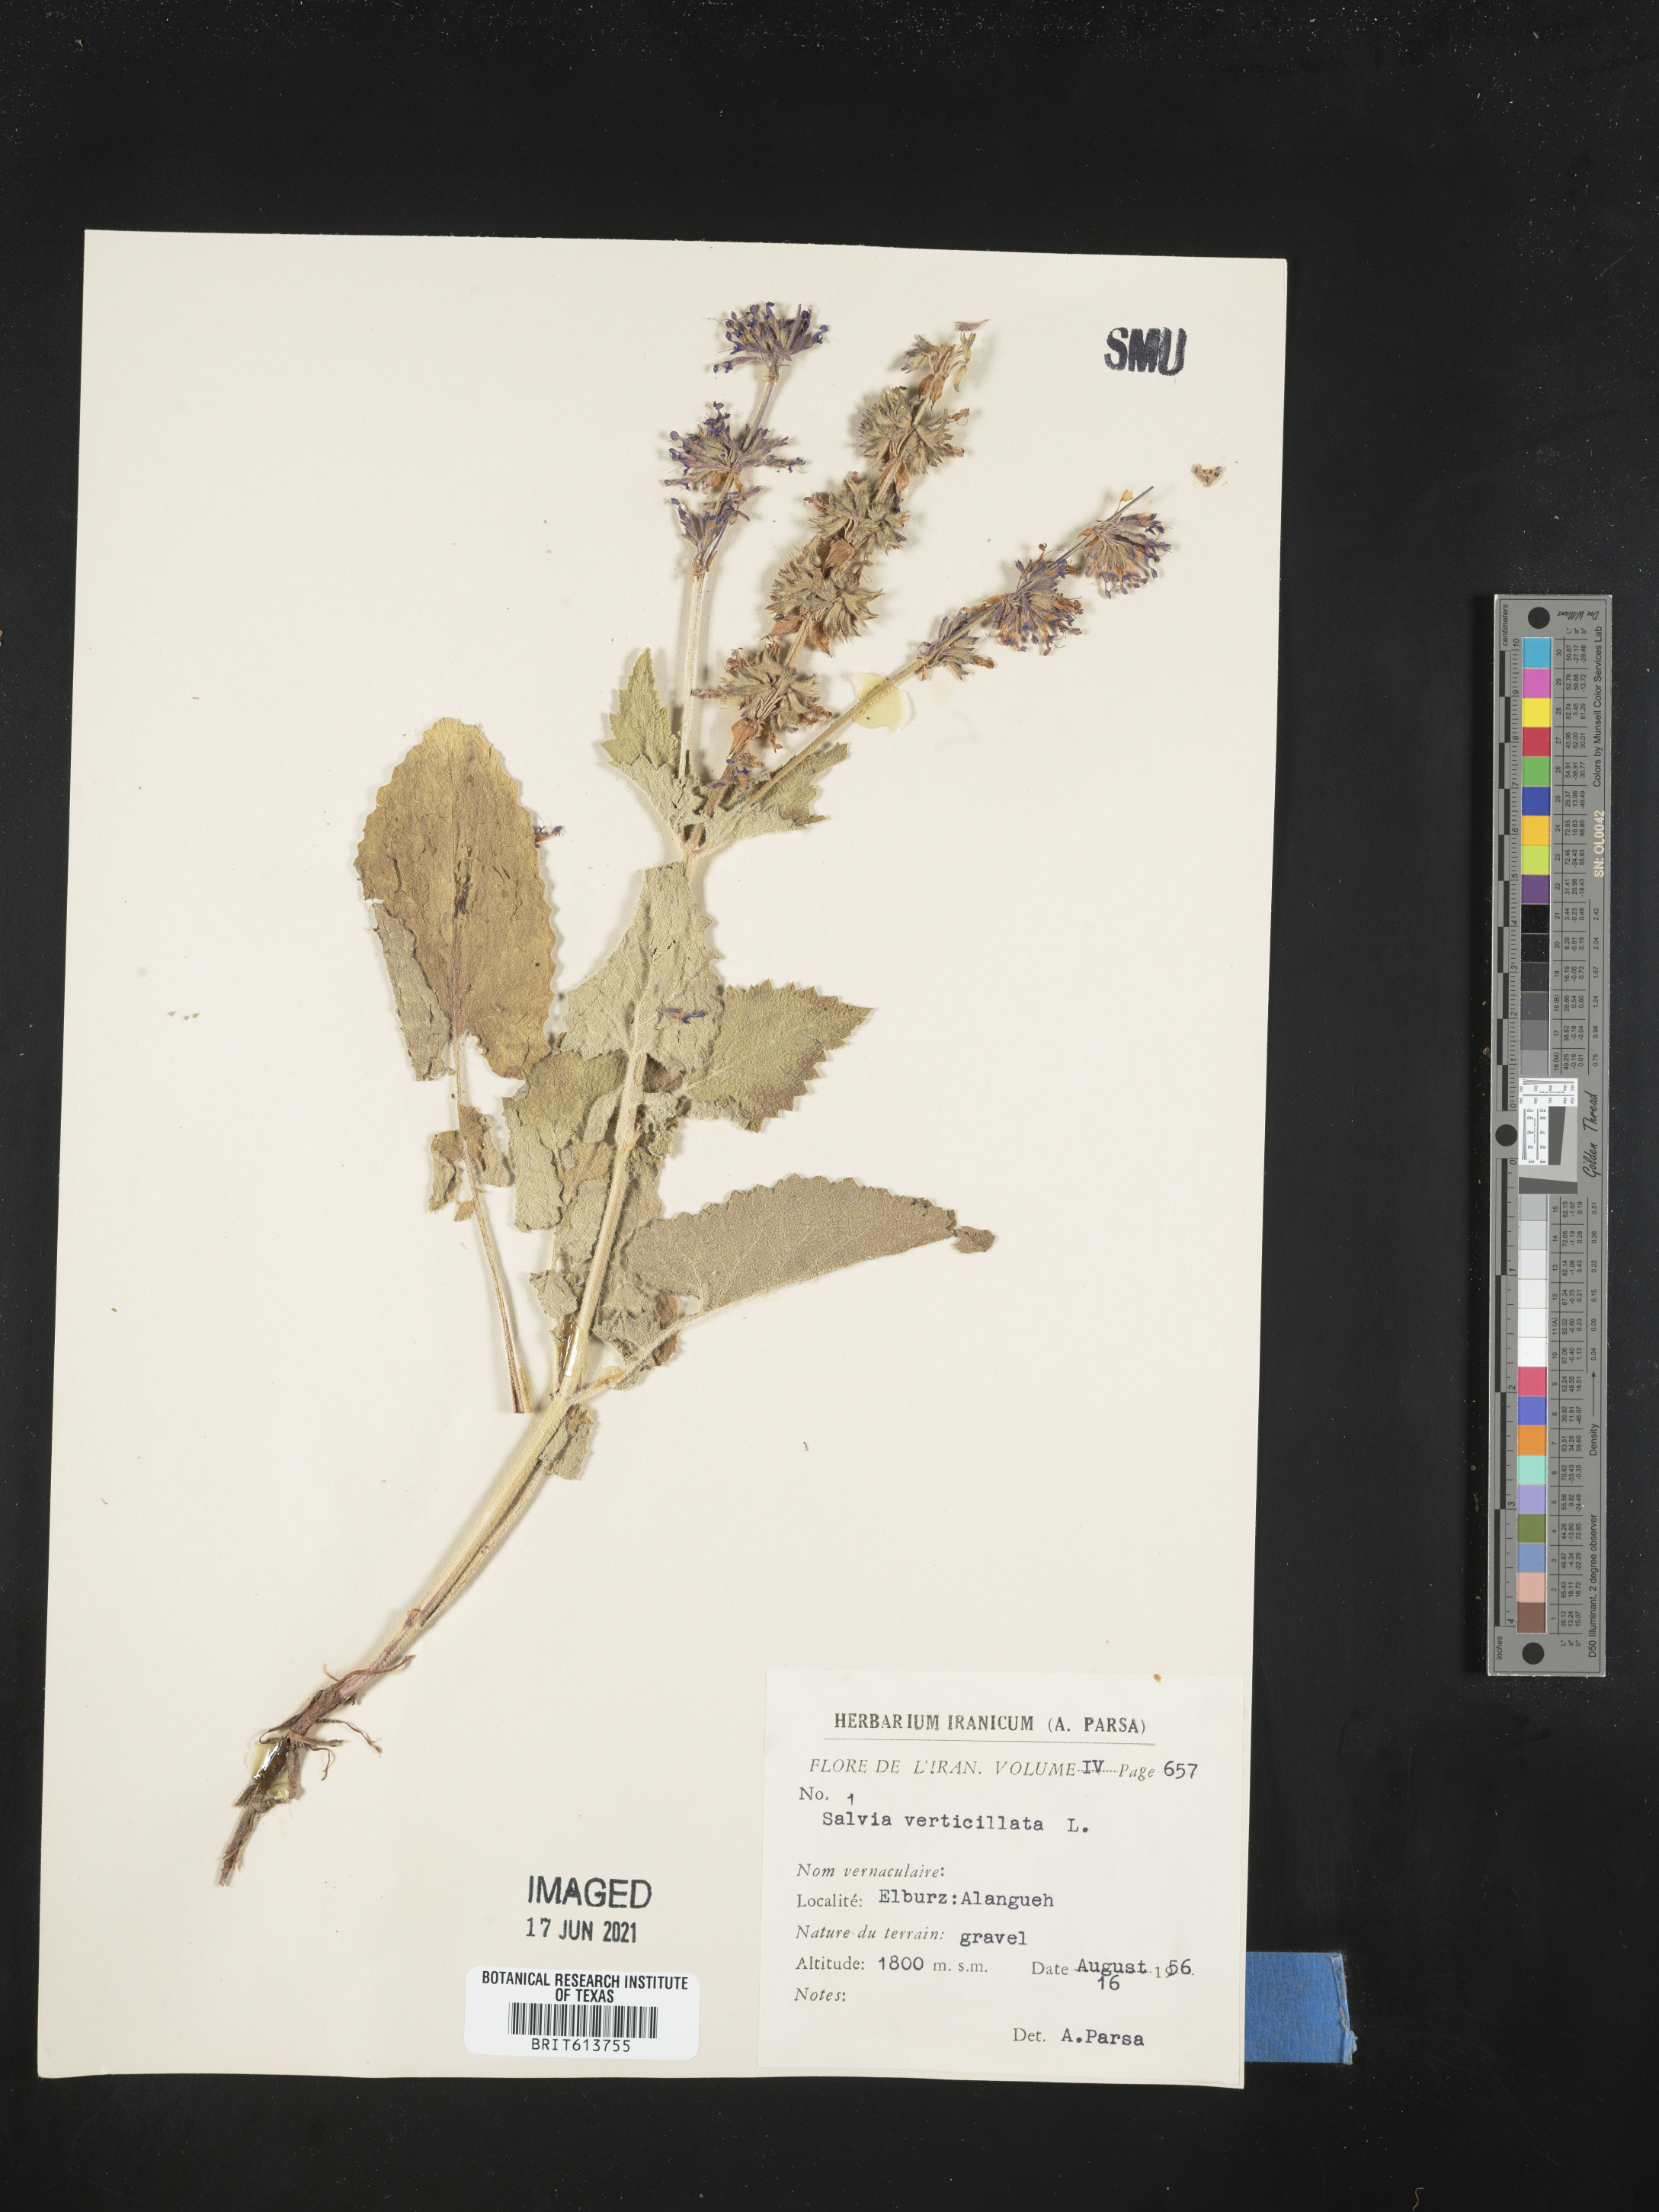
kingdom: Plantae
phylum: Tracheophyta
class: Magnoliopsida
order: Lamiales
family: Lamiaceae
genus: Salvia
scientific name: Salvia verticillata
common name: Whorled clary
